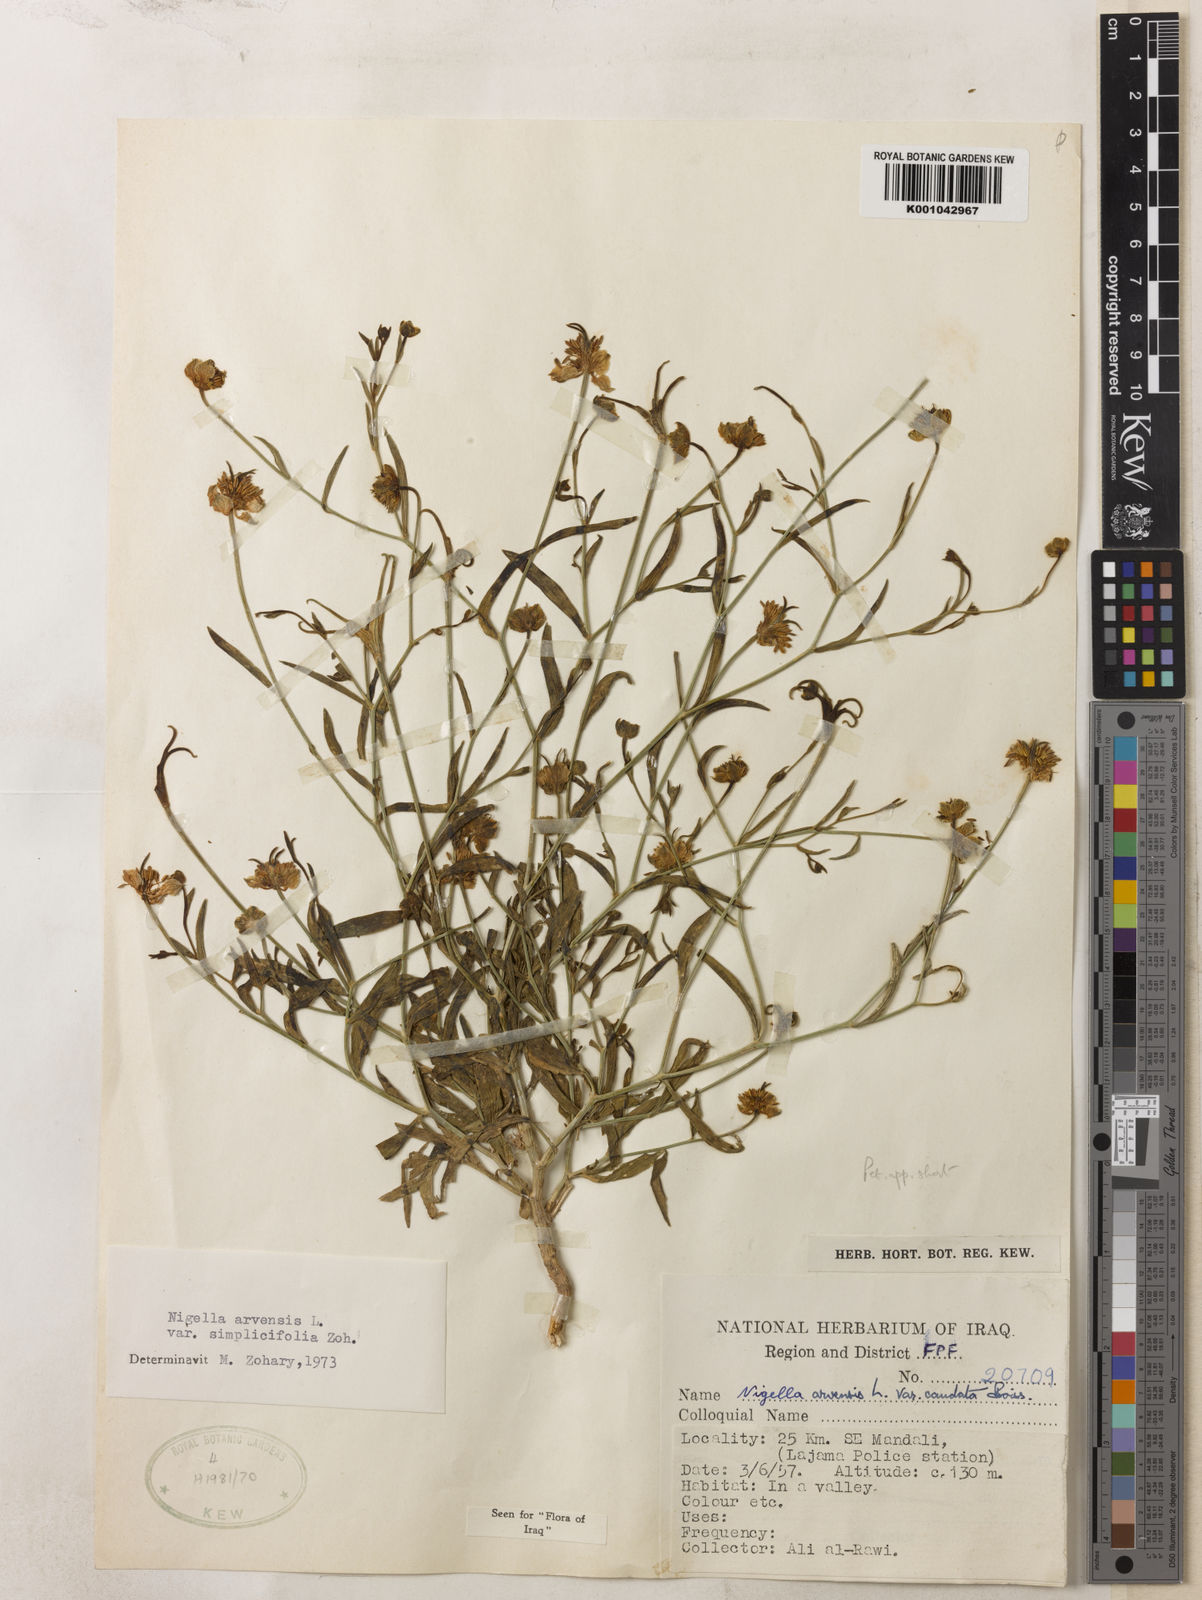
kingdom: Plantae
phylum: Tracheophyta
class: Magnoliopsida
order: Ranunculales
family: Ranunculaceae
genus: Nigella
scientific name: Nigella arvensis
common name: Wild fennel-flower
